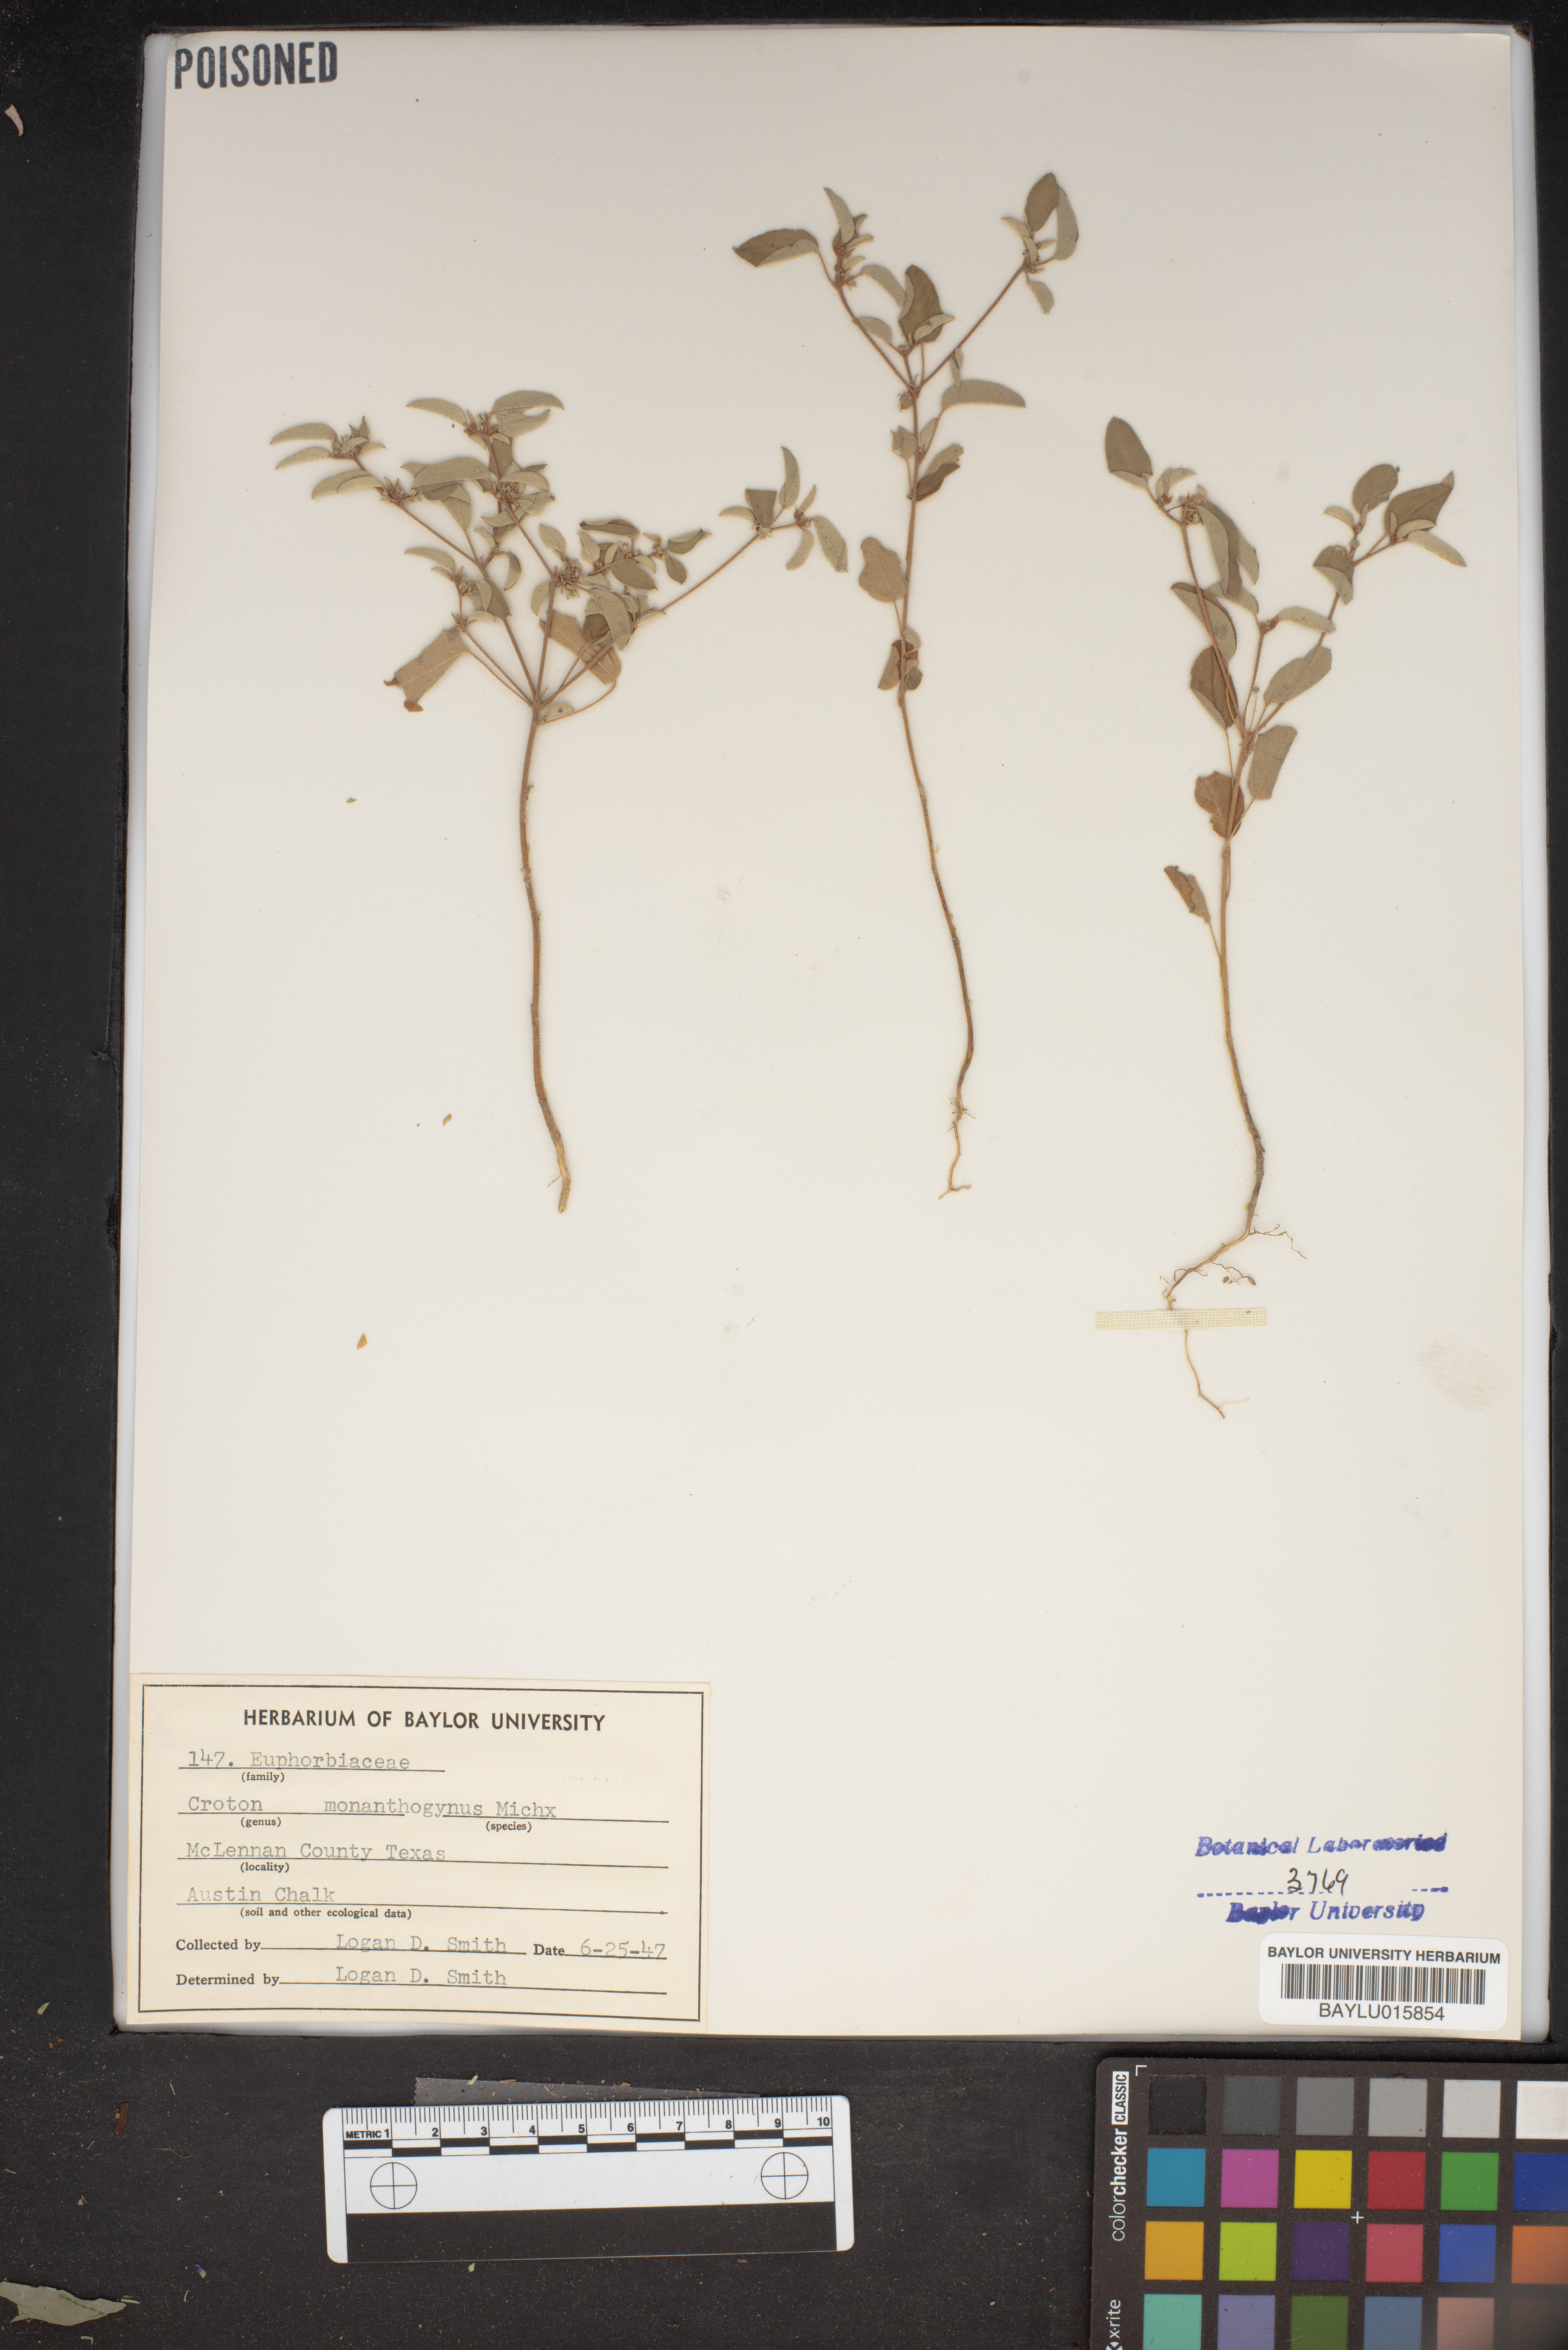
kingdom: Plantae
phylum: Tracheophyta
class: Magnoliopsida
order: Malpighiales
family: Euphorbiaceae
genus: Croton
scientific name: Croton monanthogynus
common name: One-seed croton
